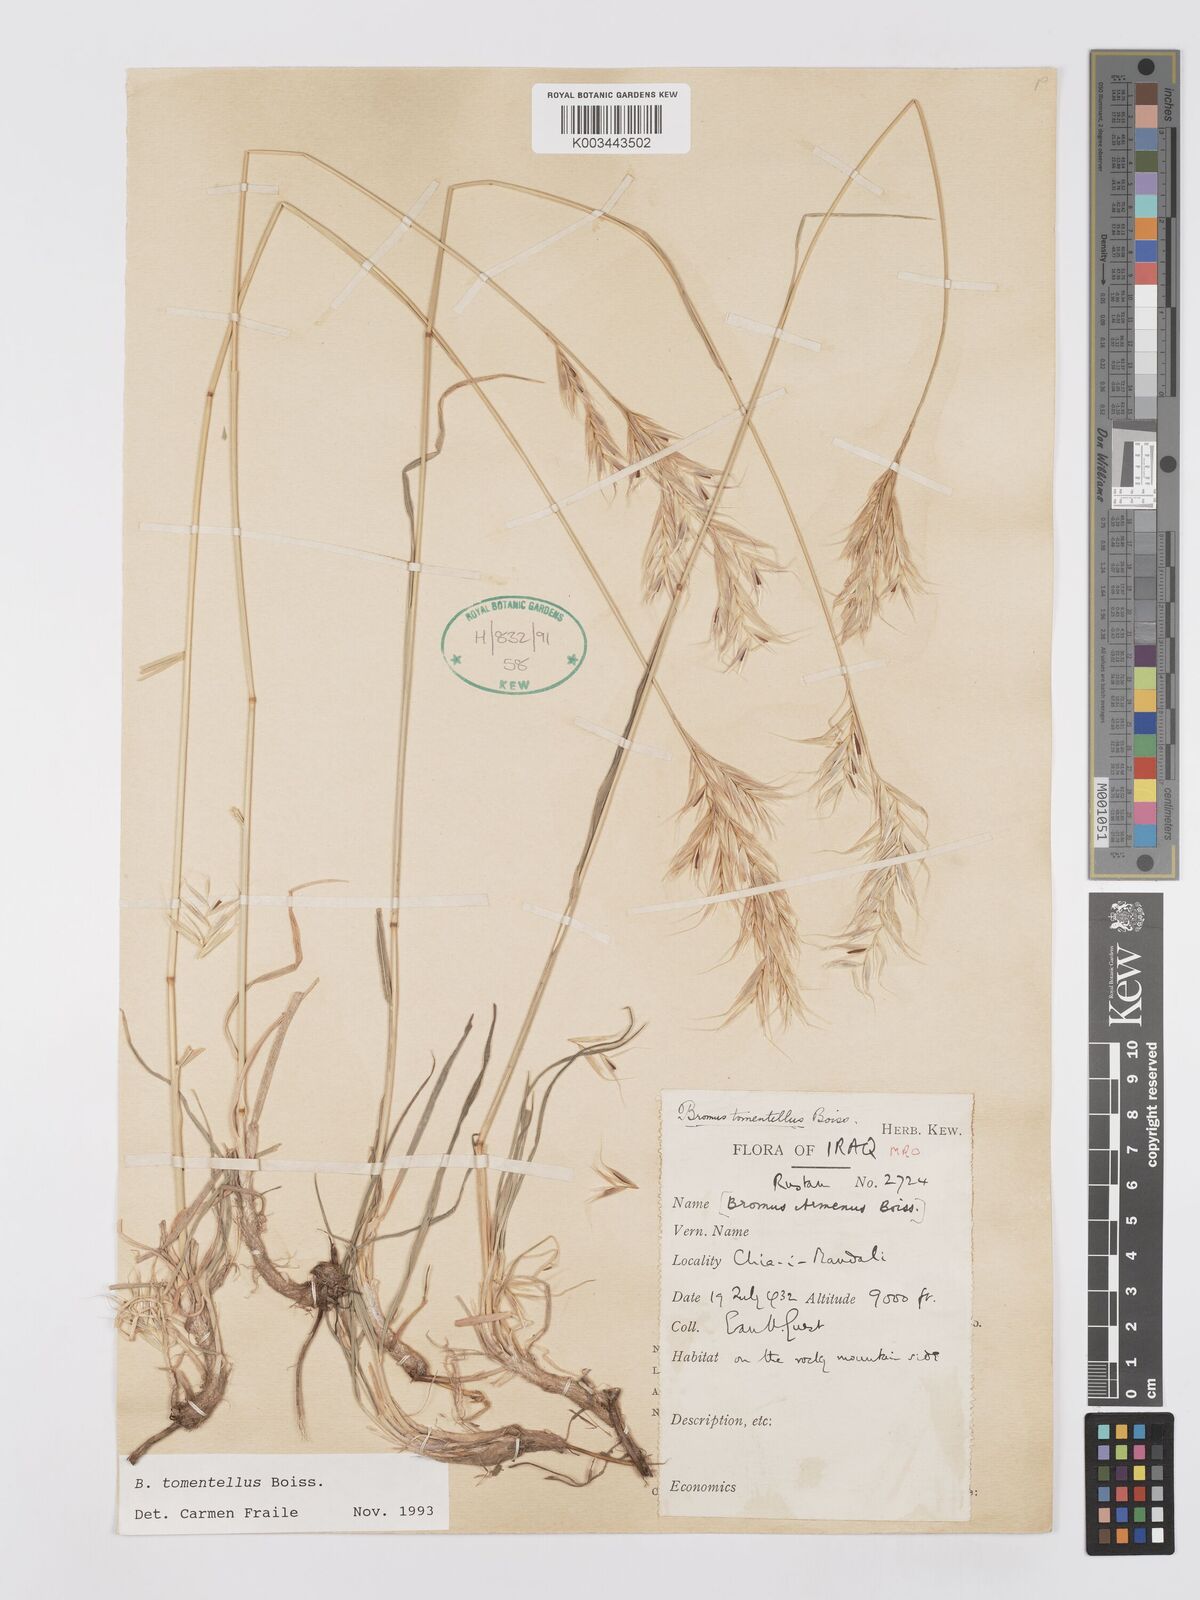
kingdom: Plantae
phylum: Tracheophyta
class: Liliopsida
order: Poales
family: Poaceae
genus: Bromus
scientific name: Bromus tomentellus
